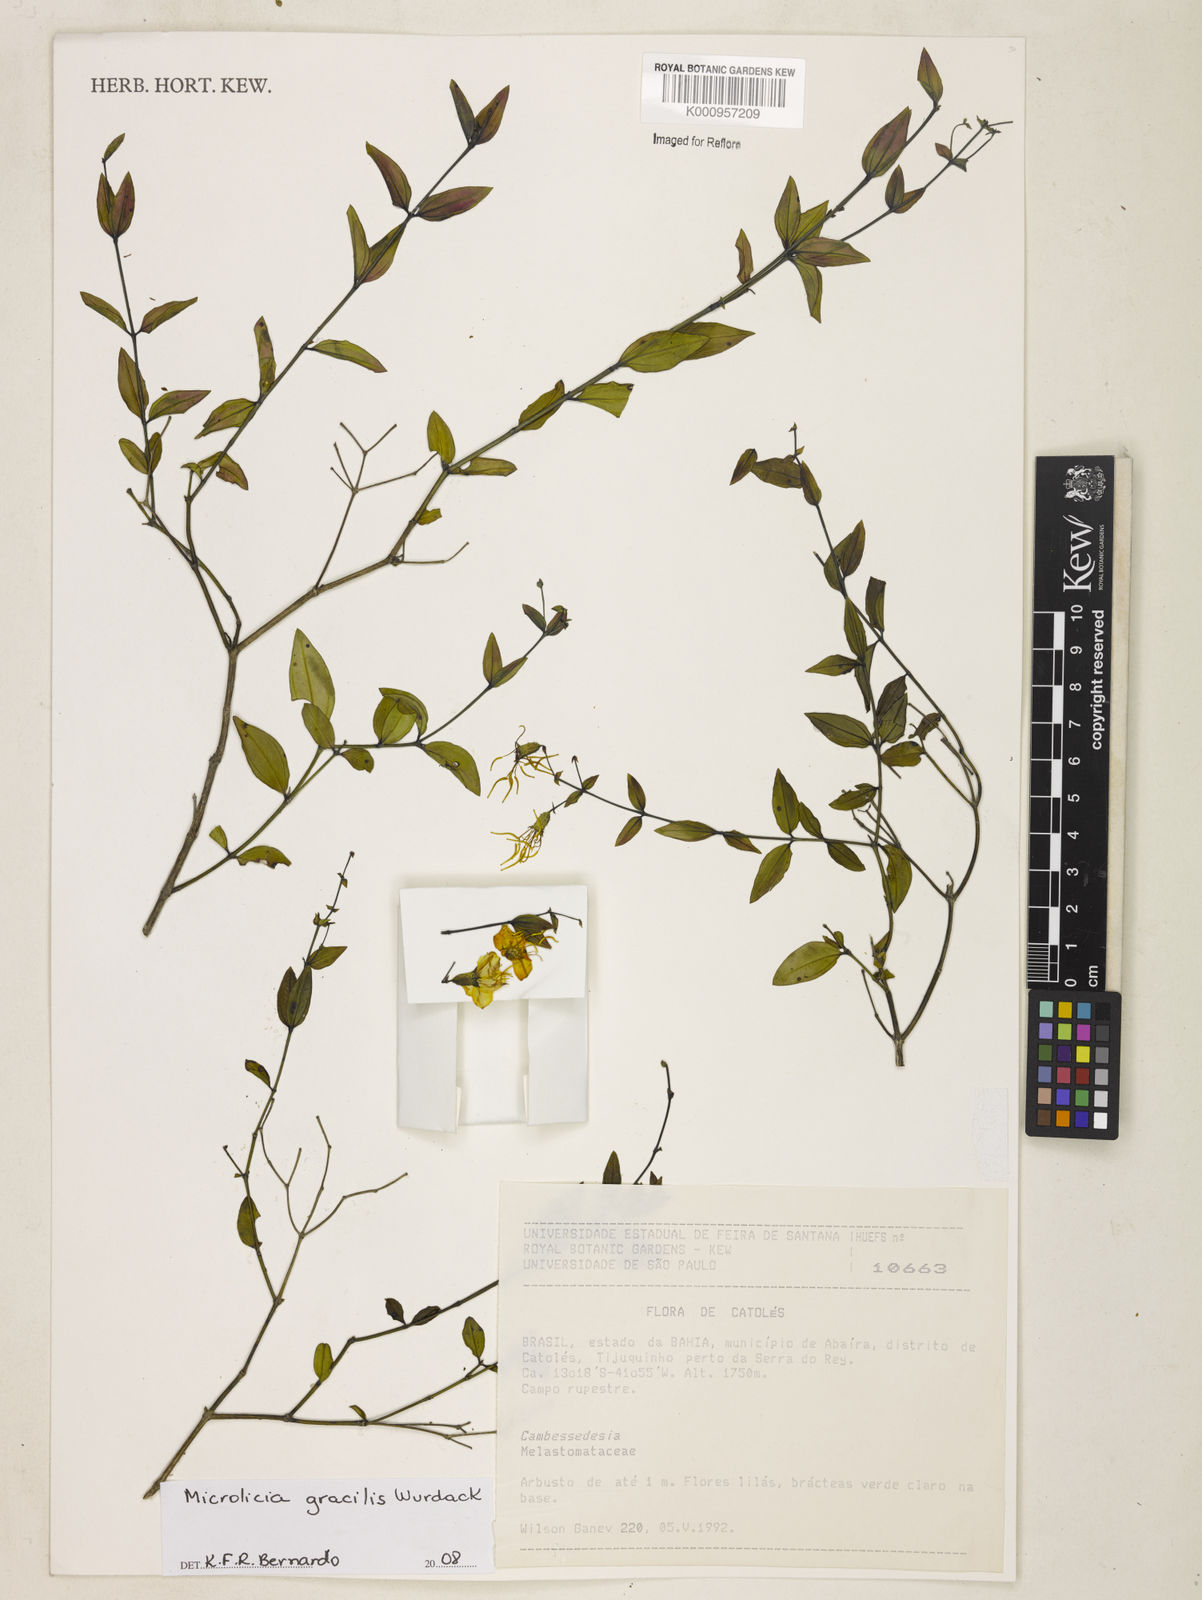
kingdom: Plantae
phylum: Tracheophyta
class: Magnoliopsida
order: Myrtales
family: Melastomataceae
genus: Cambessedesia
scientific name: Cambessedesia gracilis
